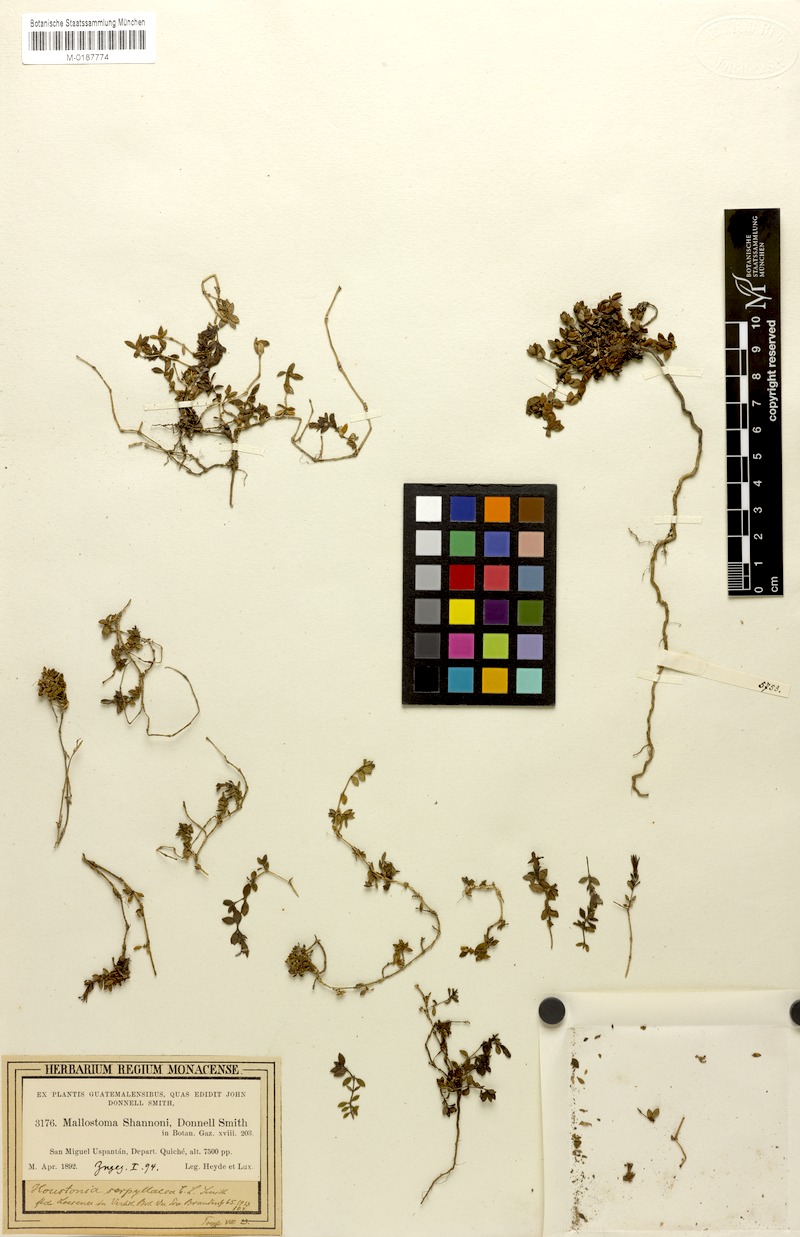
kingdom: Plantae
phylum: Tracheophyta
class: Magnoliopsida
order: Gentianales
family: Rubiaceae
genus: Arcytophyllum
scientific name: Arcytophyllum serpyllaceum
